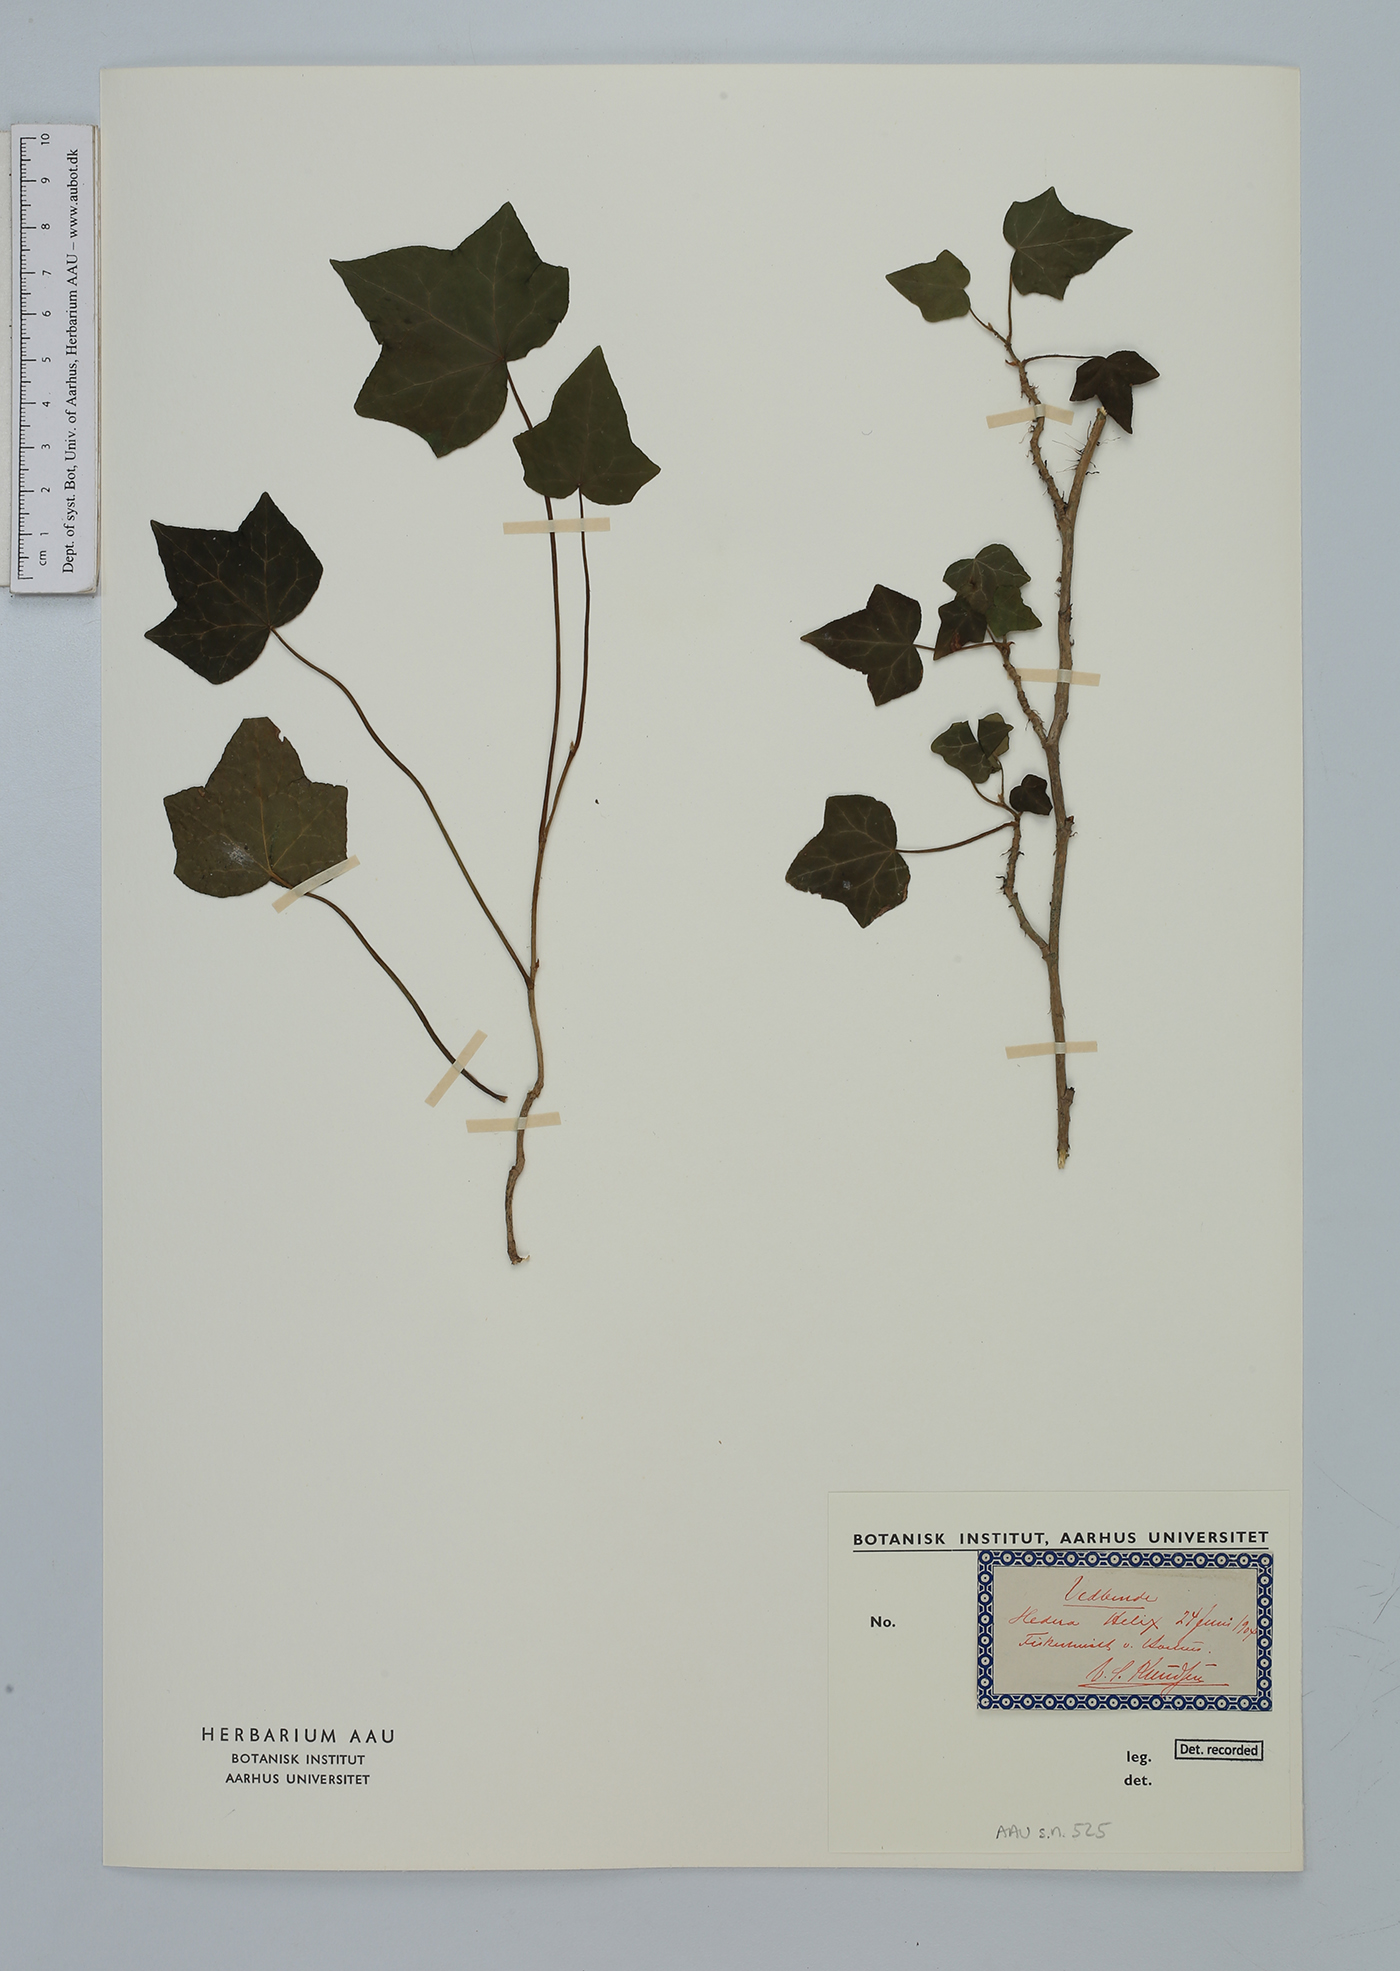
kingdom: Plantae
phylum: Tracheophyta
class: Magnoliopsida
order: Apiales
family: Araliaceae
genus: Hedera
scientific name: Hedera helix
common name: Ivy
